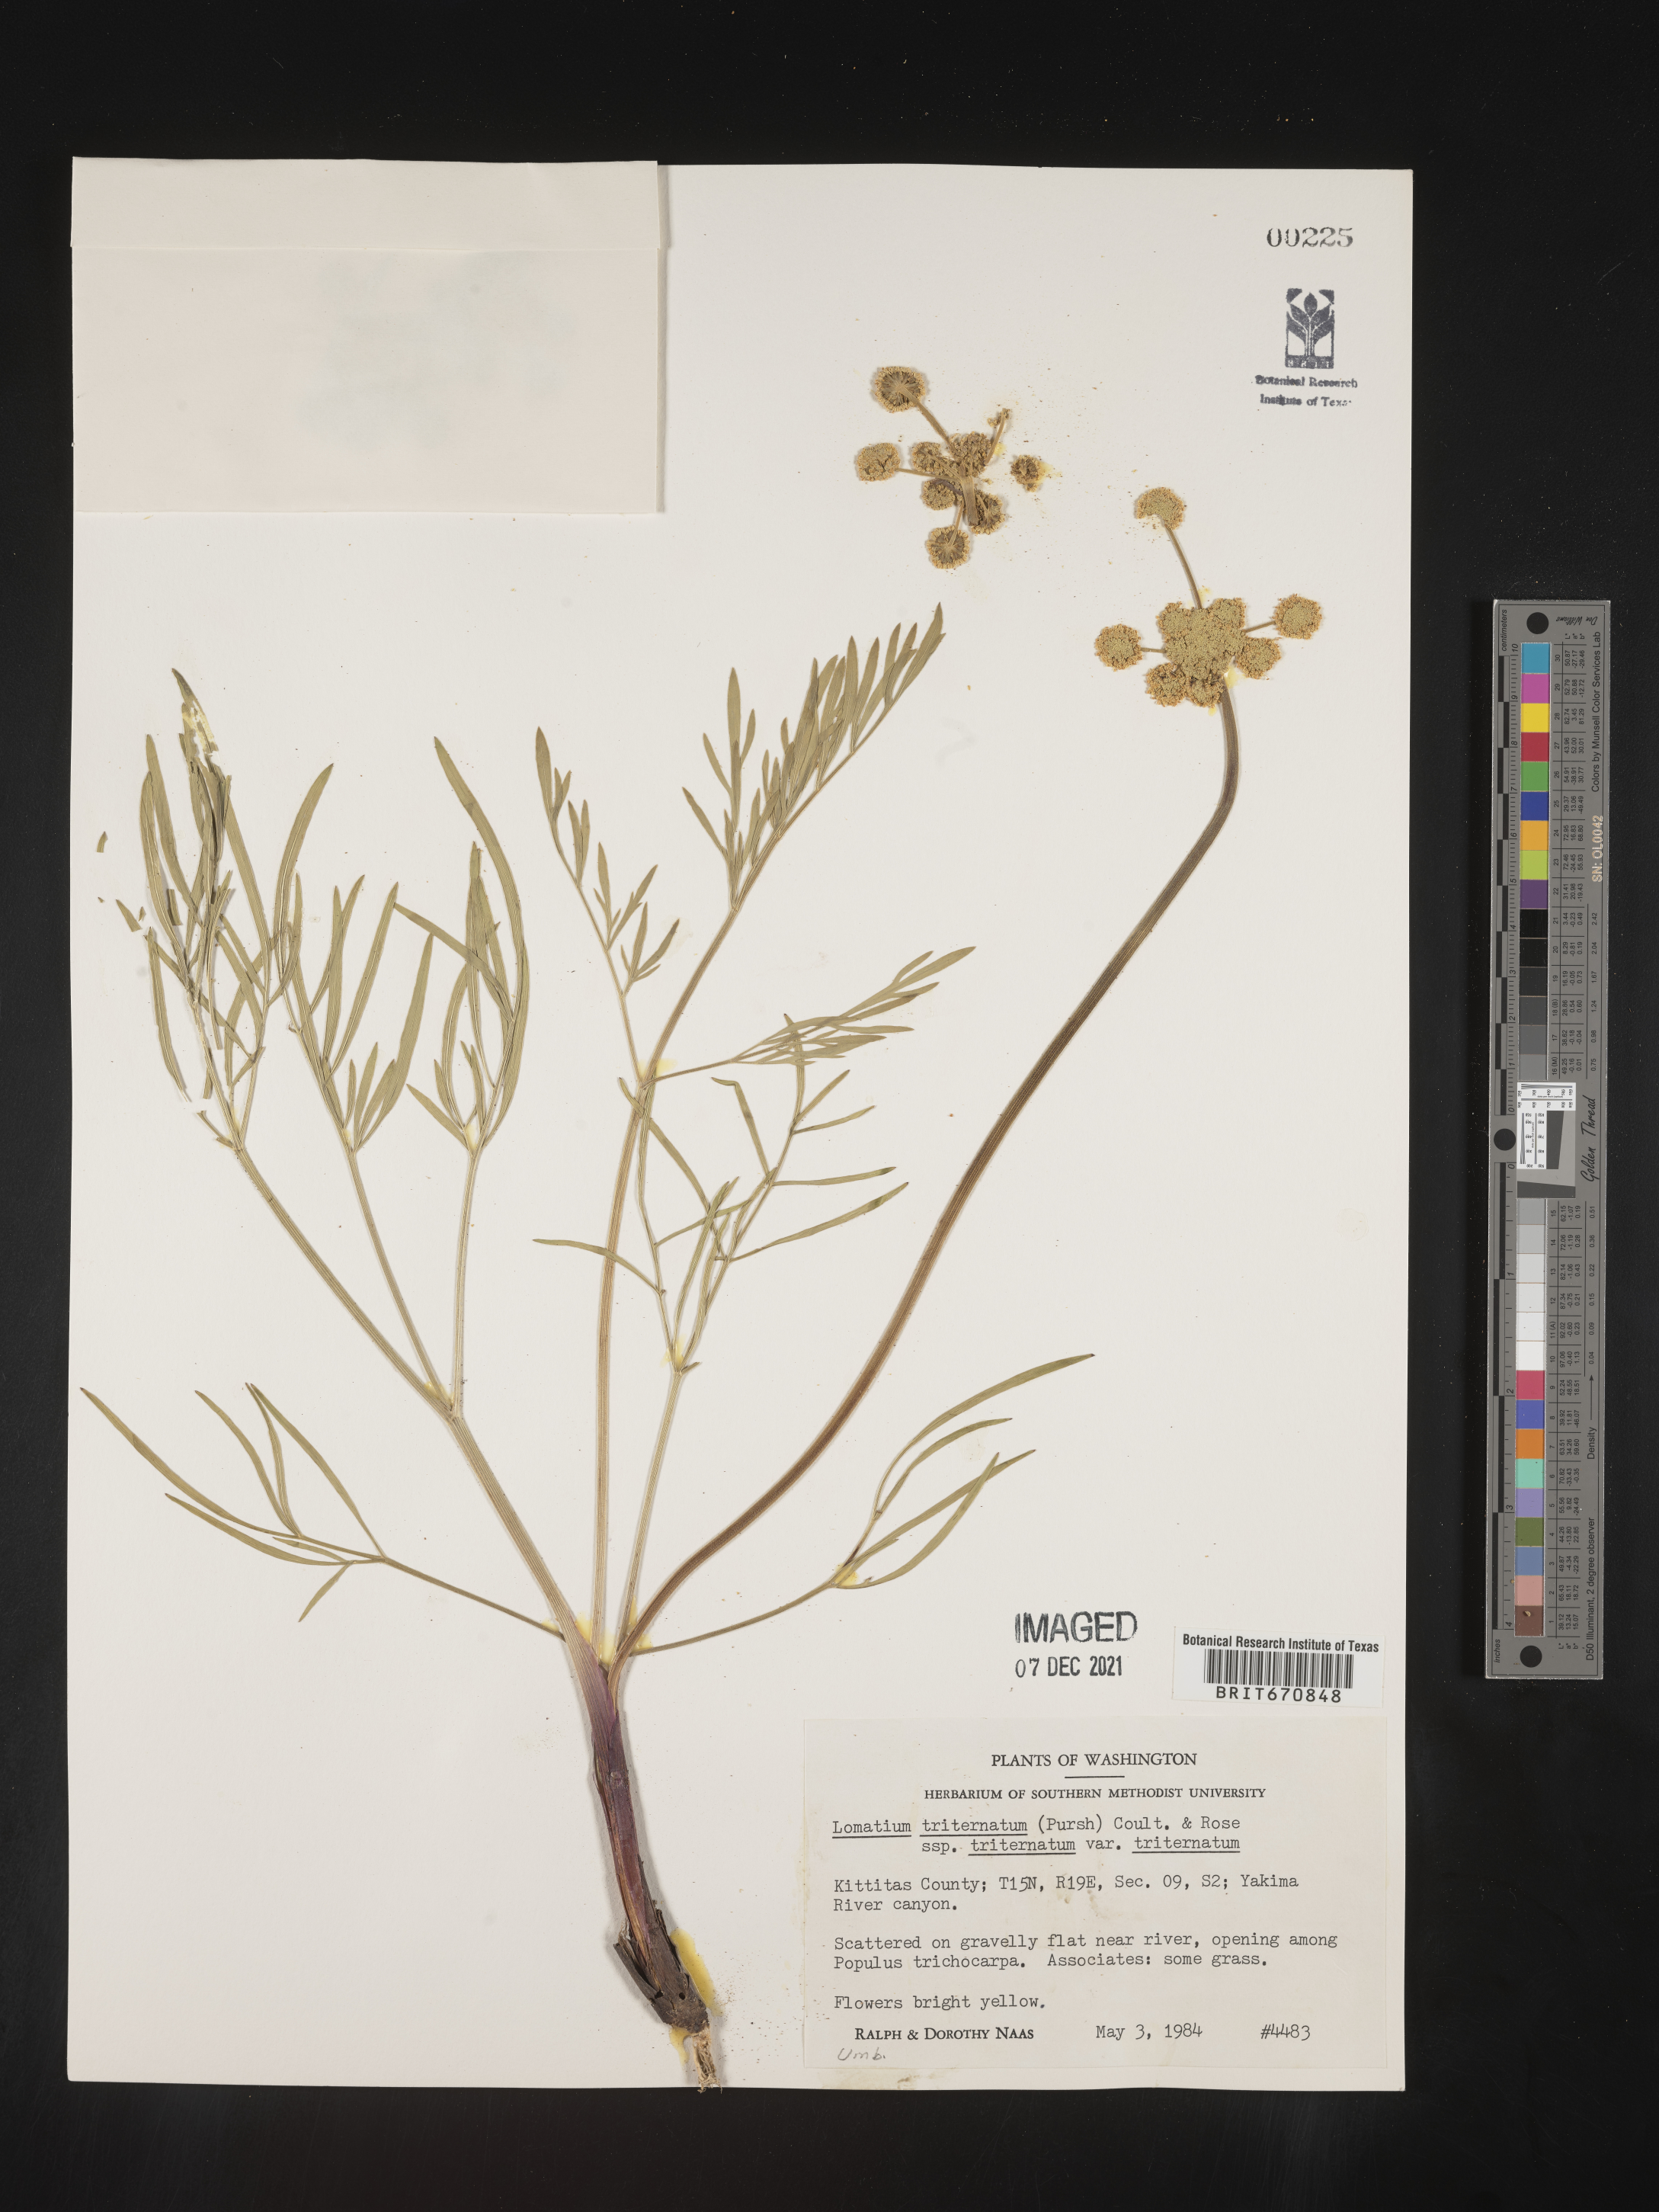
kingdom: Plantae
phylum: Tracheophyta
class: Magnoliopsida
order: Apiales
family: Apiaceae
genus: Lomatium
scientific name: Lomatium triternatum
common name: Ternate lomatium
